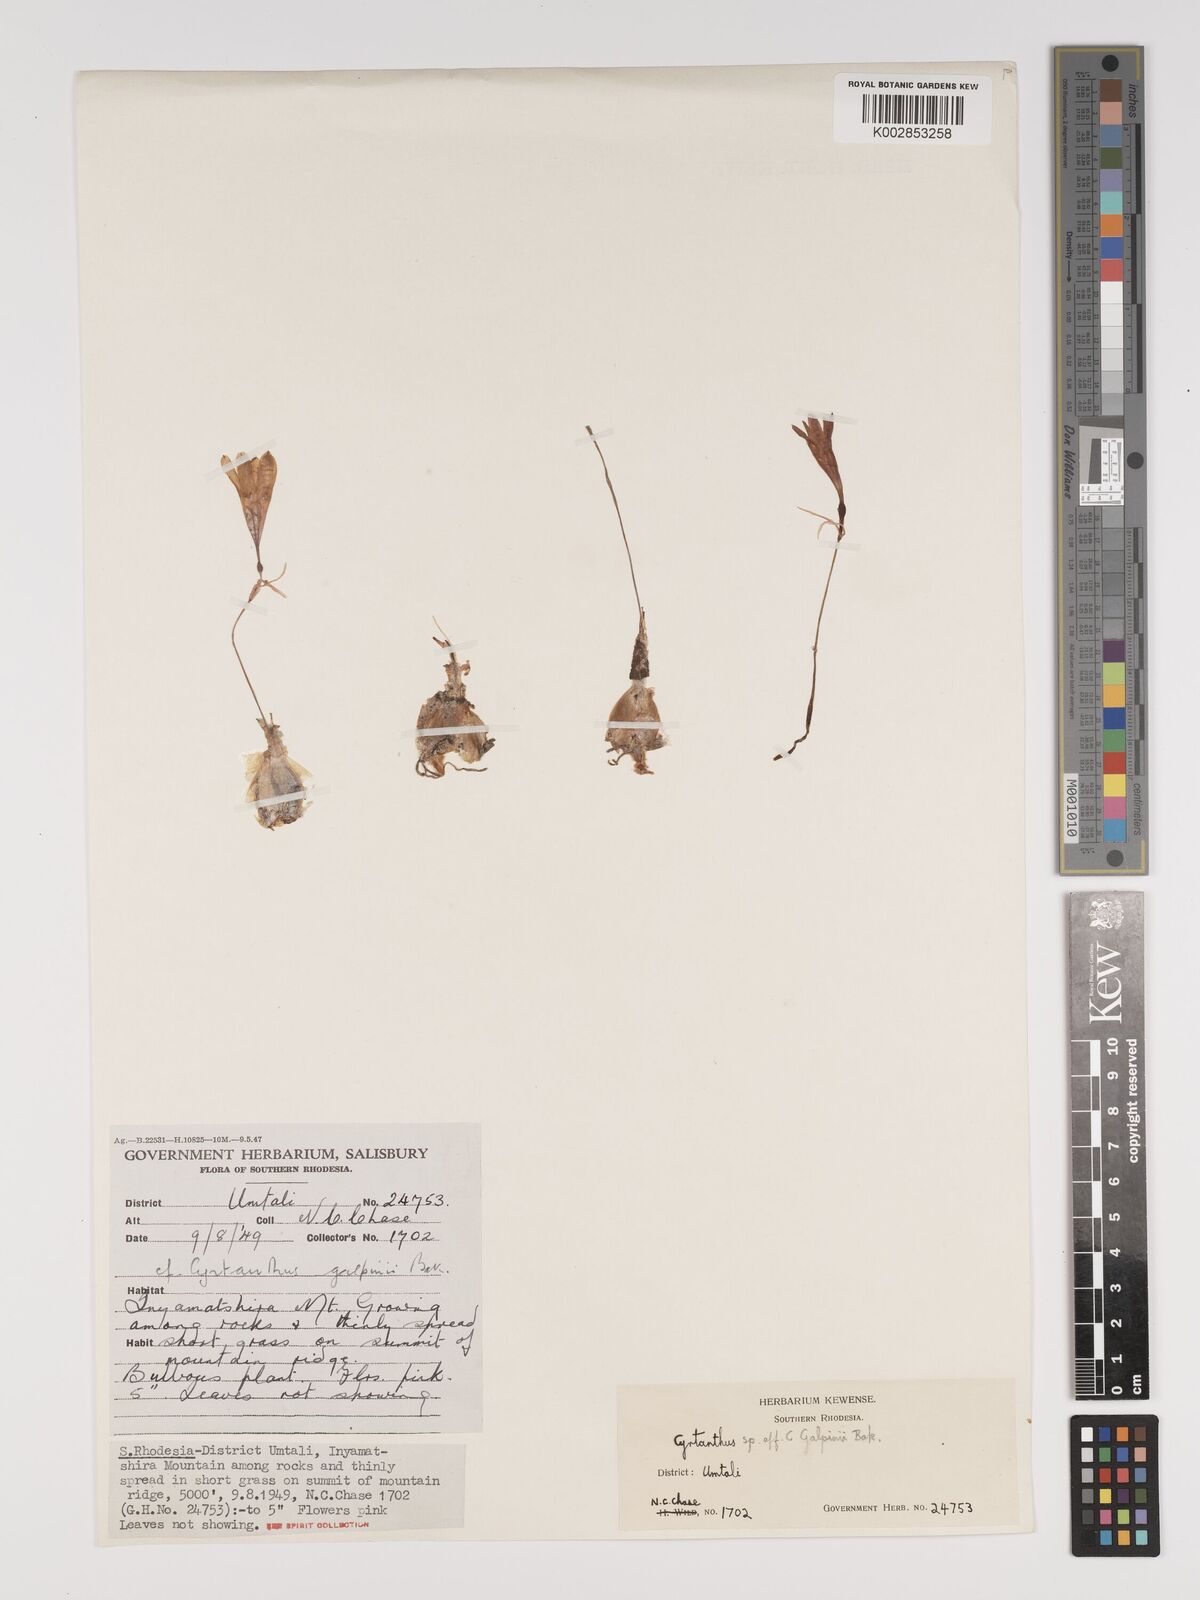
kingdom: Plantae
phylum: Tracheophyta
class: Liliopsida
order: Asparagales
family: Amaryllidaceae
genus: Cyrtanthus
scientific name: Cyrtanthus galpinii
